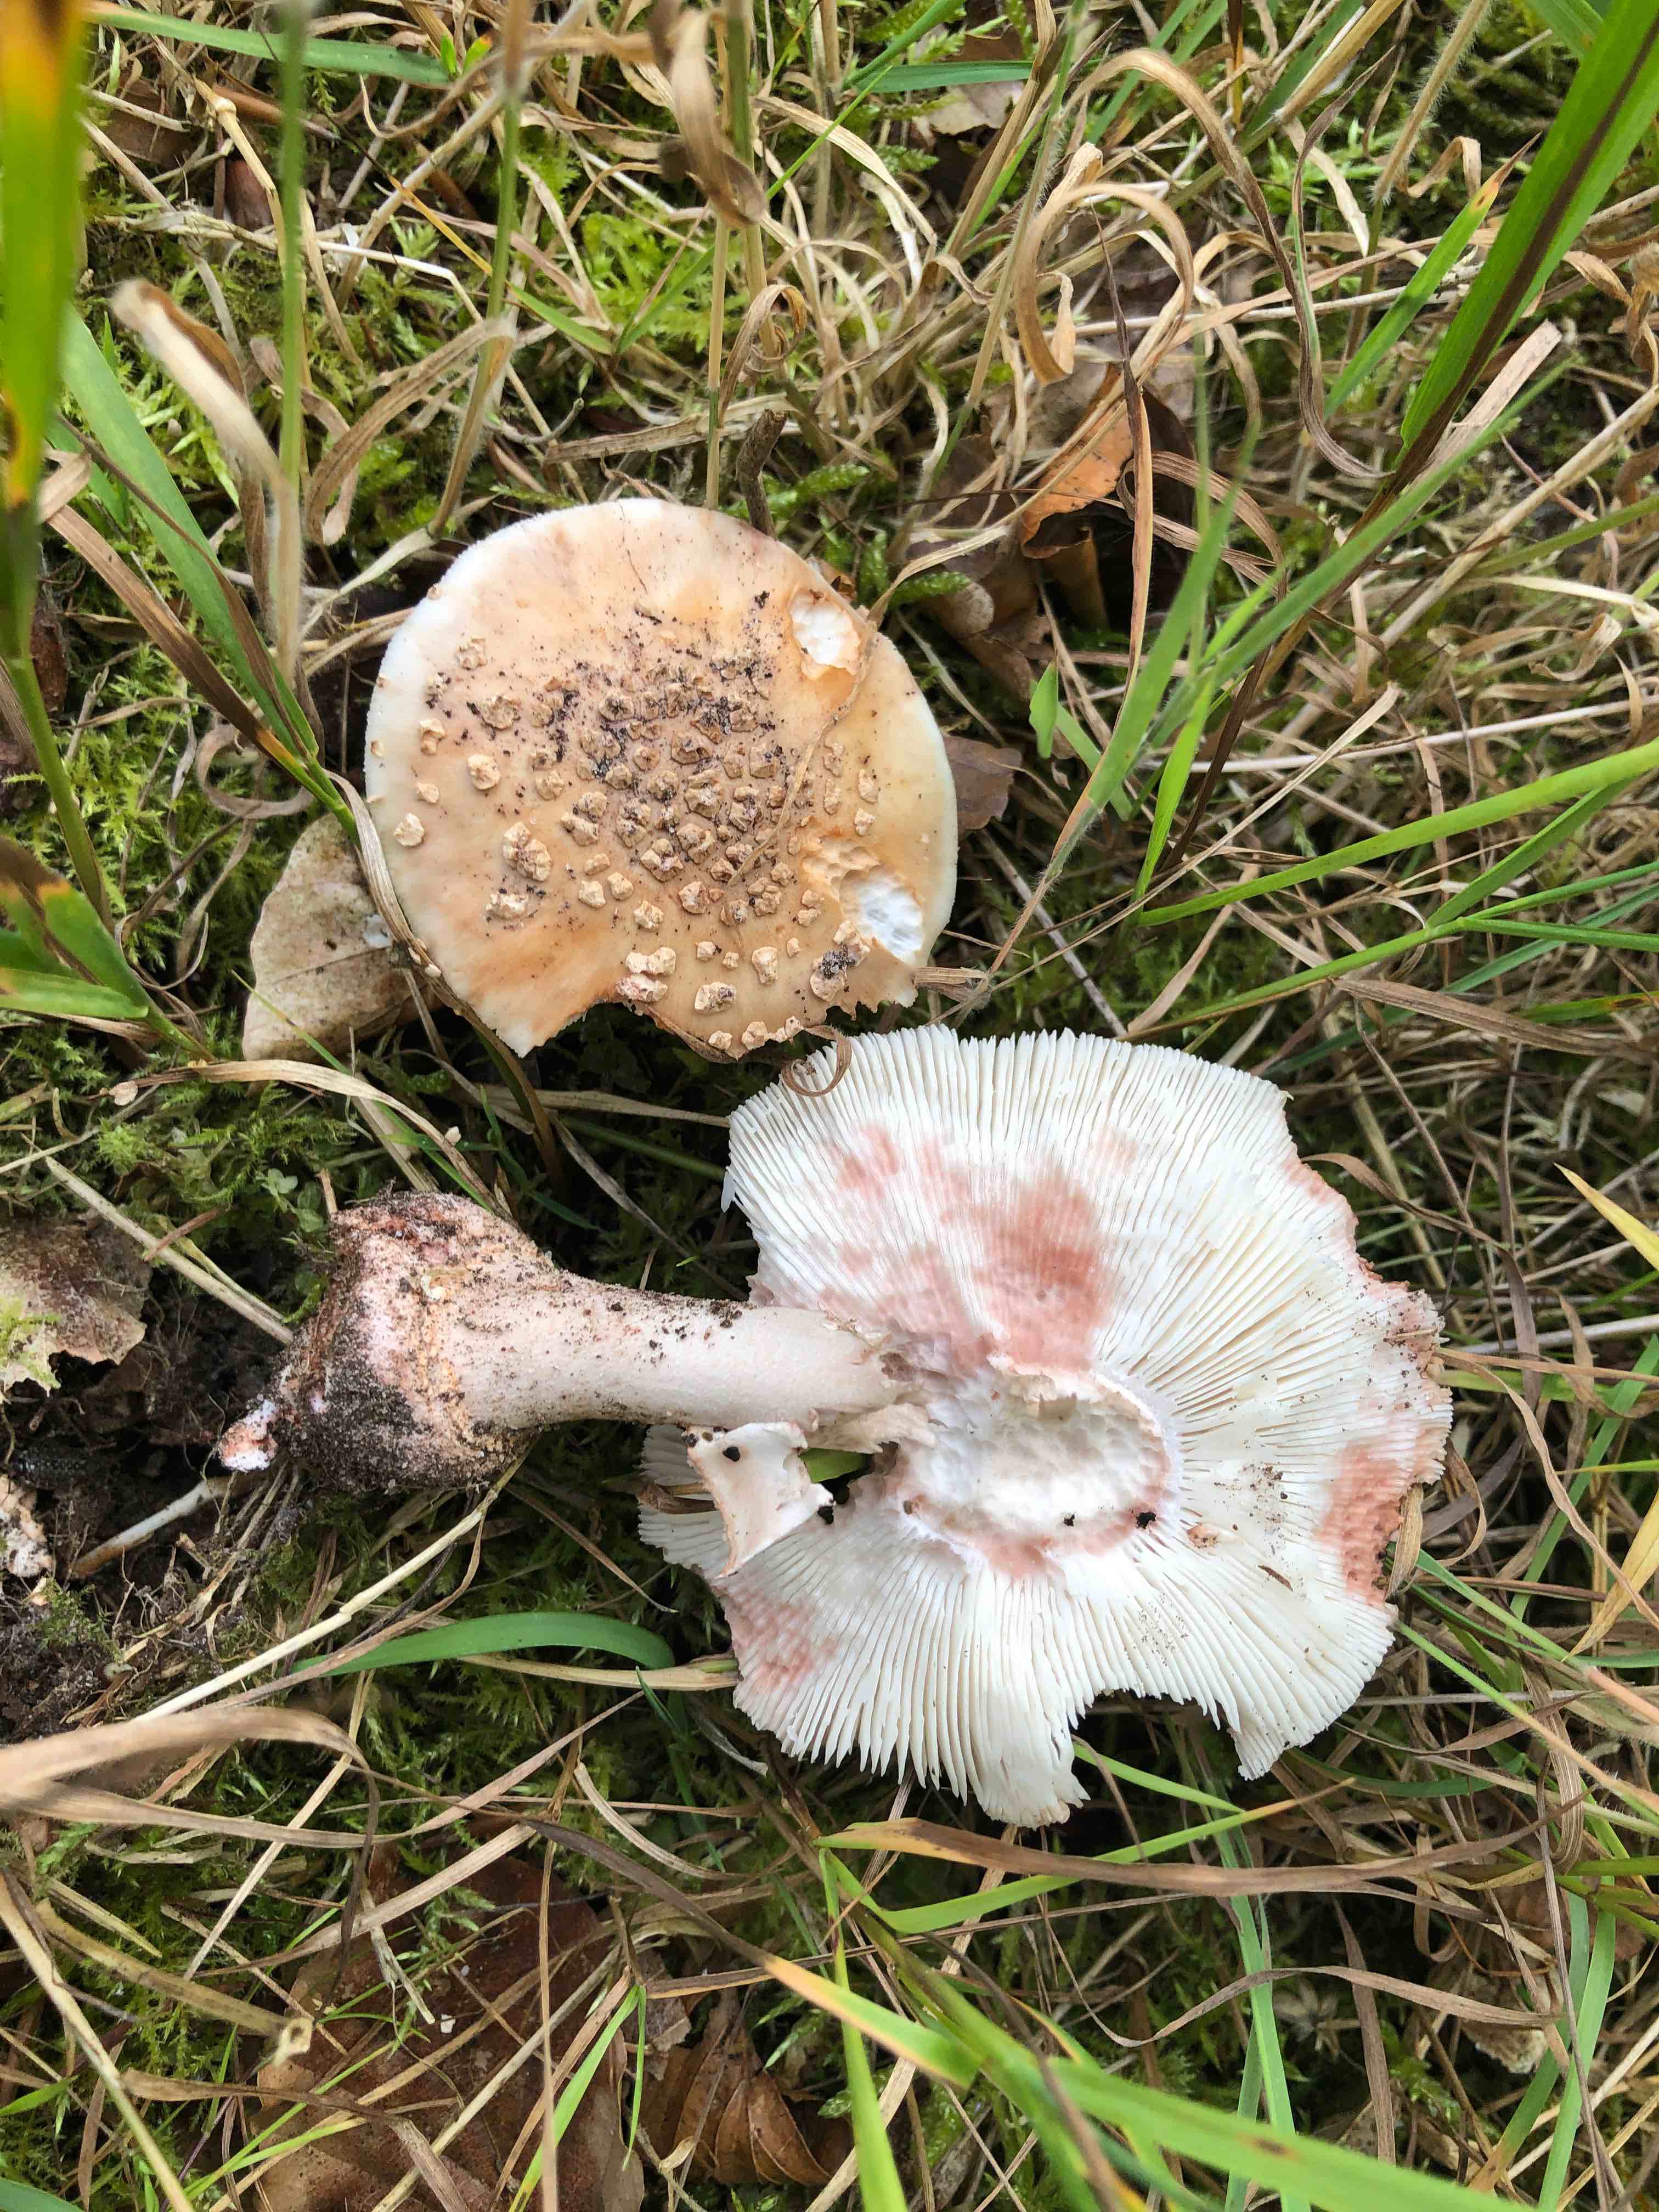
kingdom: Fungi
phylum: Basidiomycota
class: Agaricomycetes
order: Agaricales
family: Amanitaceae
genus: Amanita
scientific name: Amanita rubescens
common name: rødmende fluesvamp
